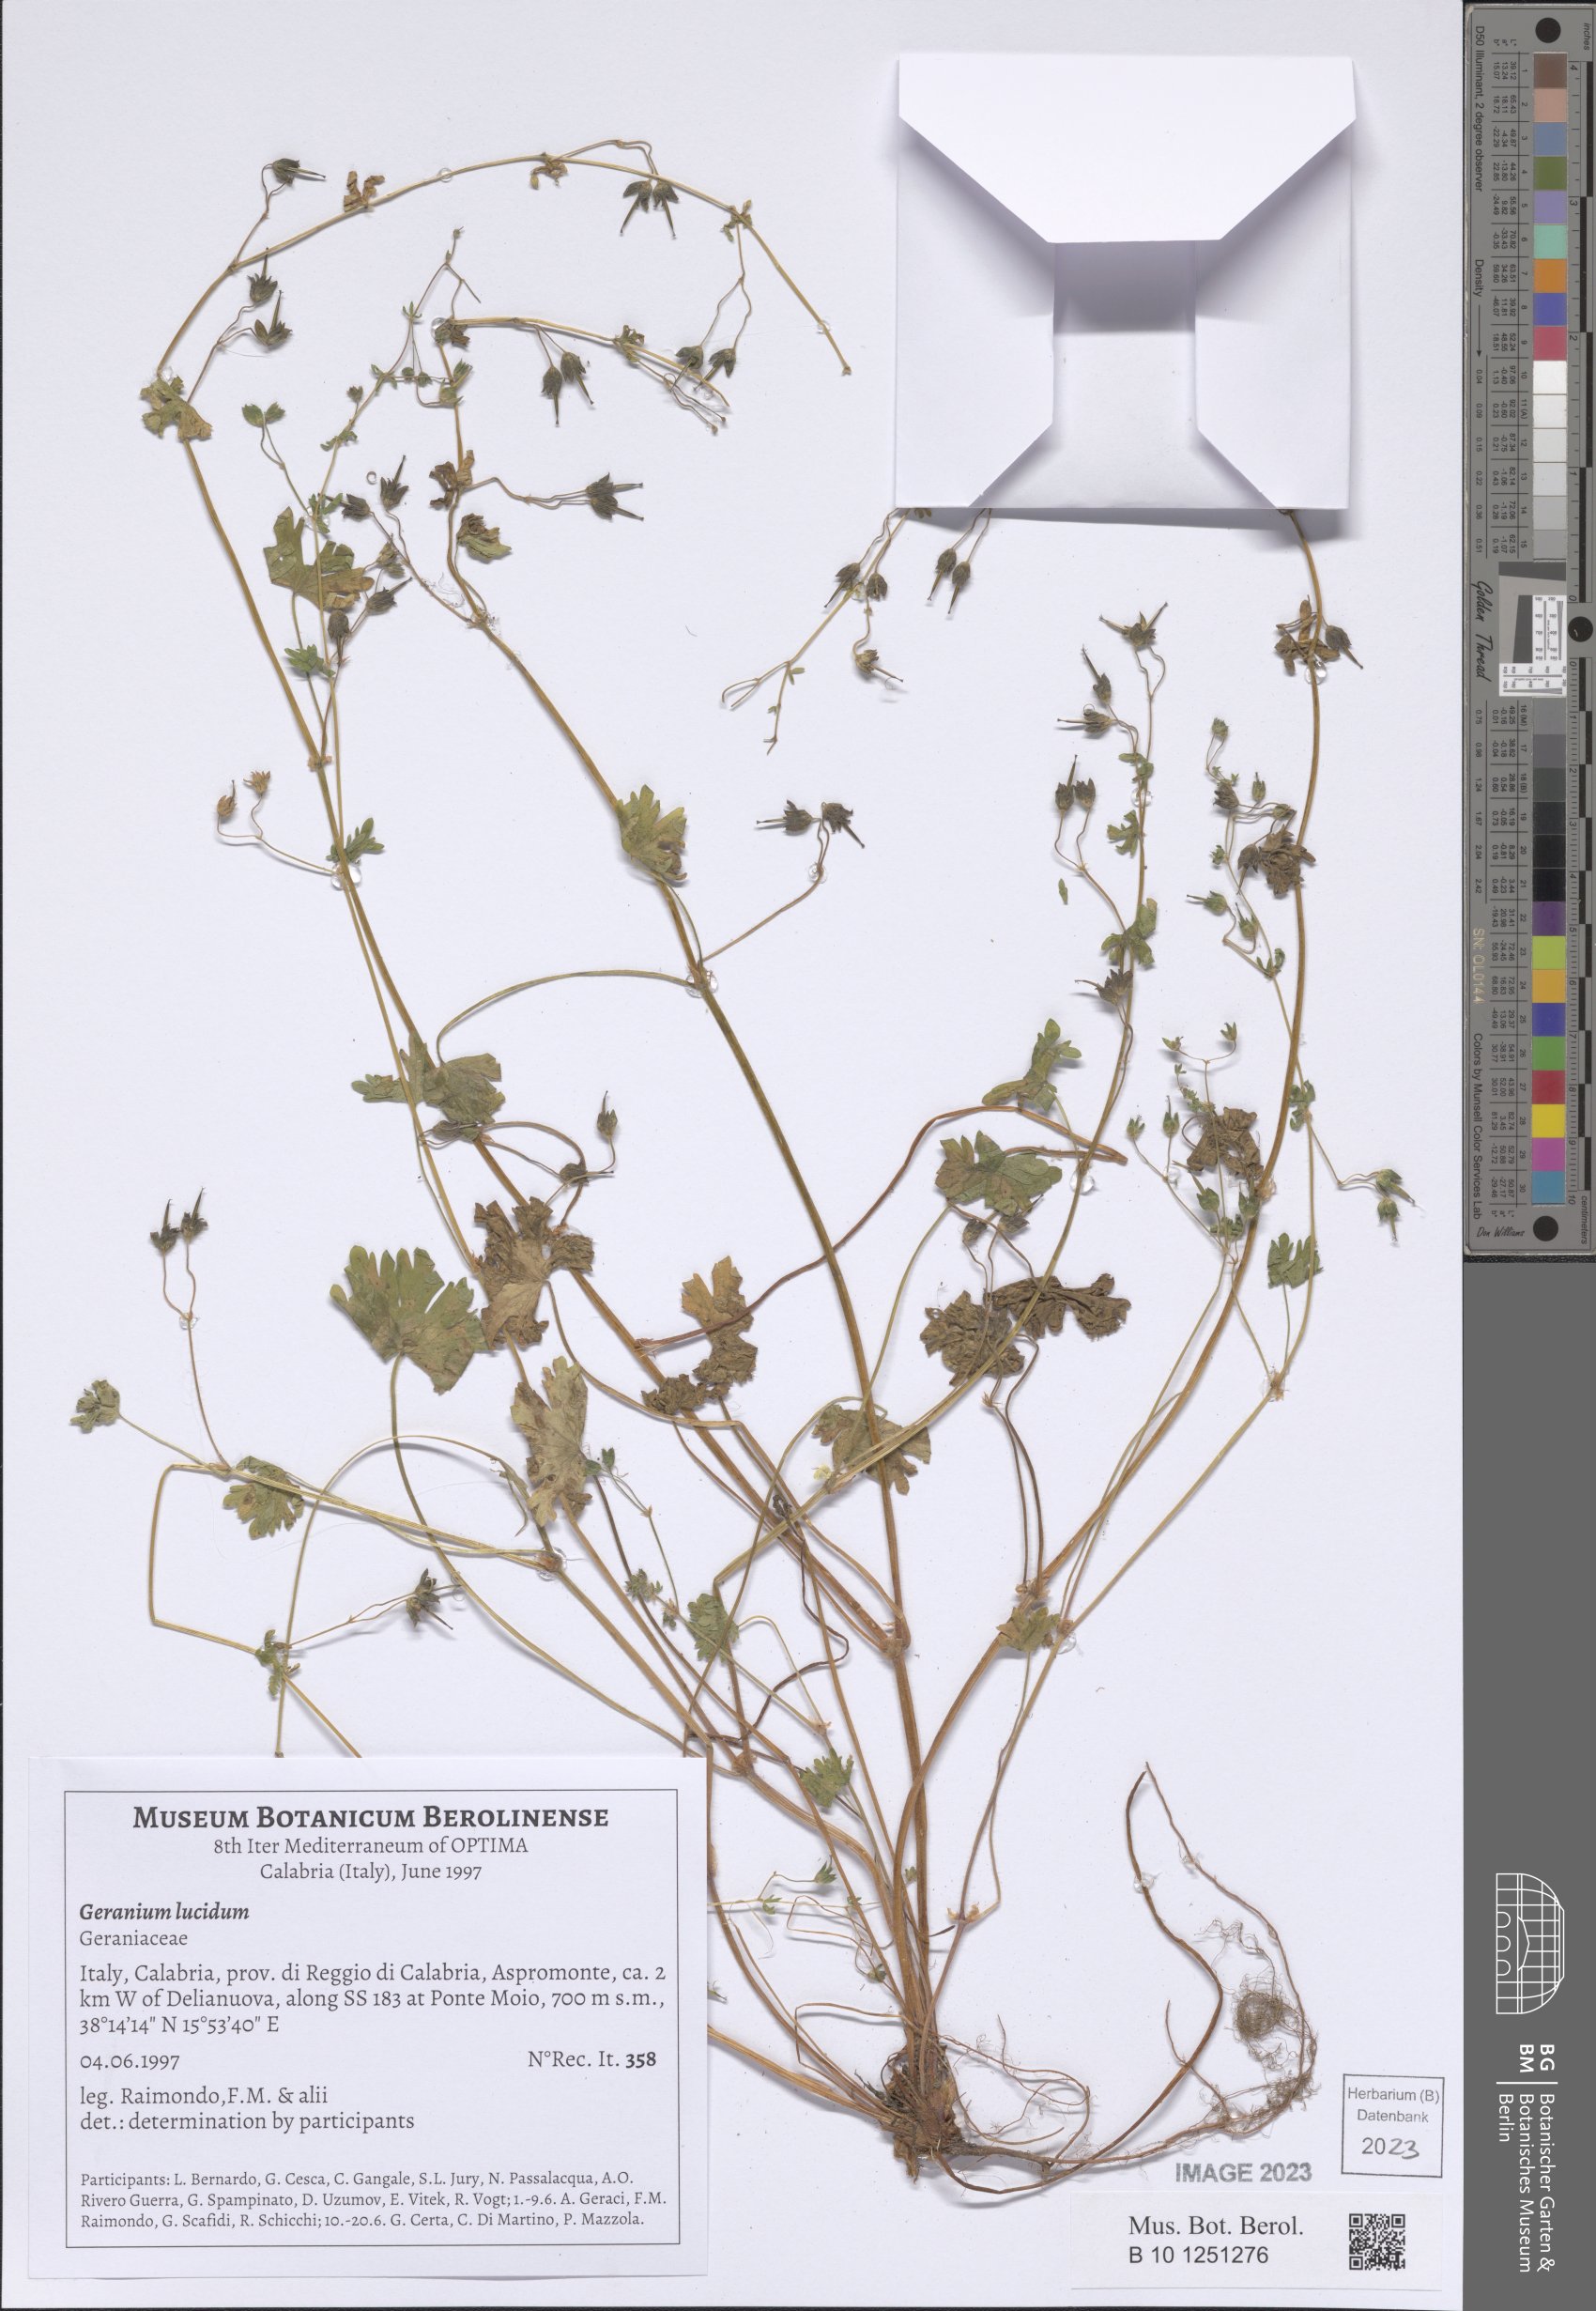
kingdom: Plantae
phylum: Tracheophyta
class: Magnoliopsida
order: Geraniales
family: Geraniaceae
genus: Geranium
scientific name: Geranium lucidum
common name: Shining crane's-bill
